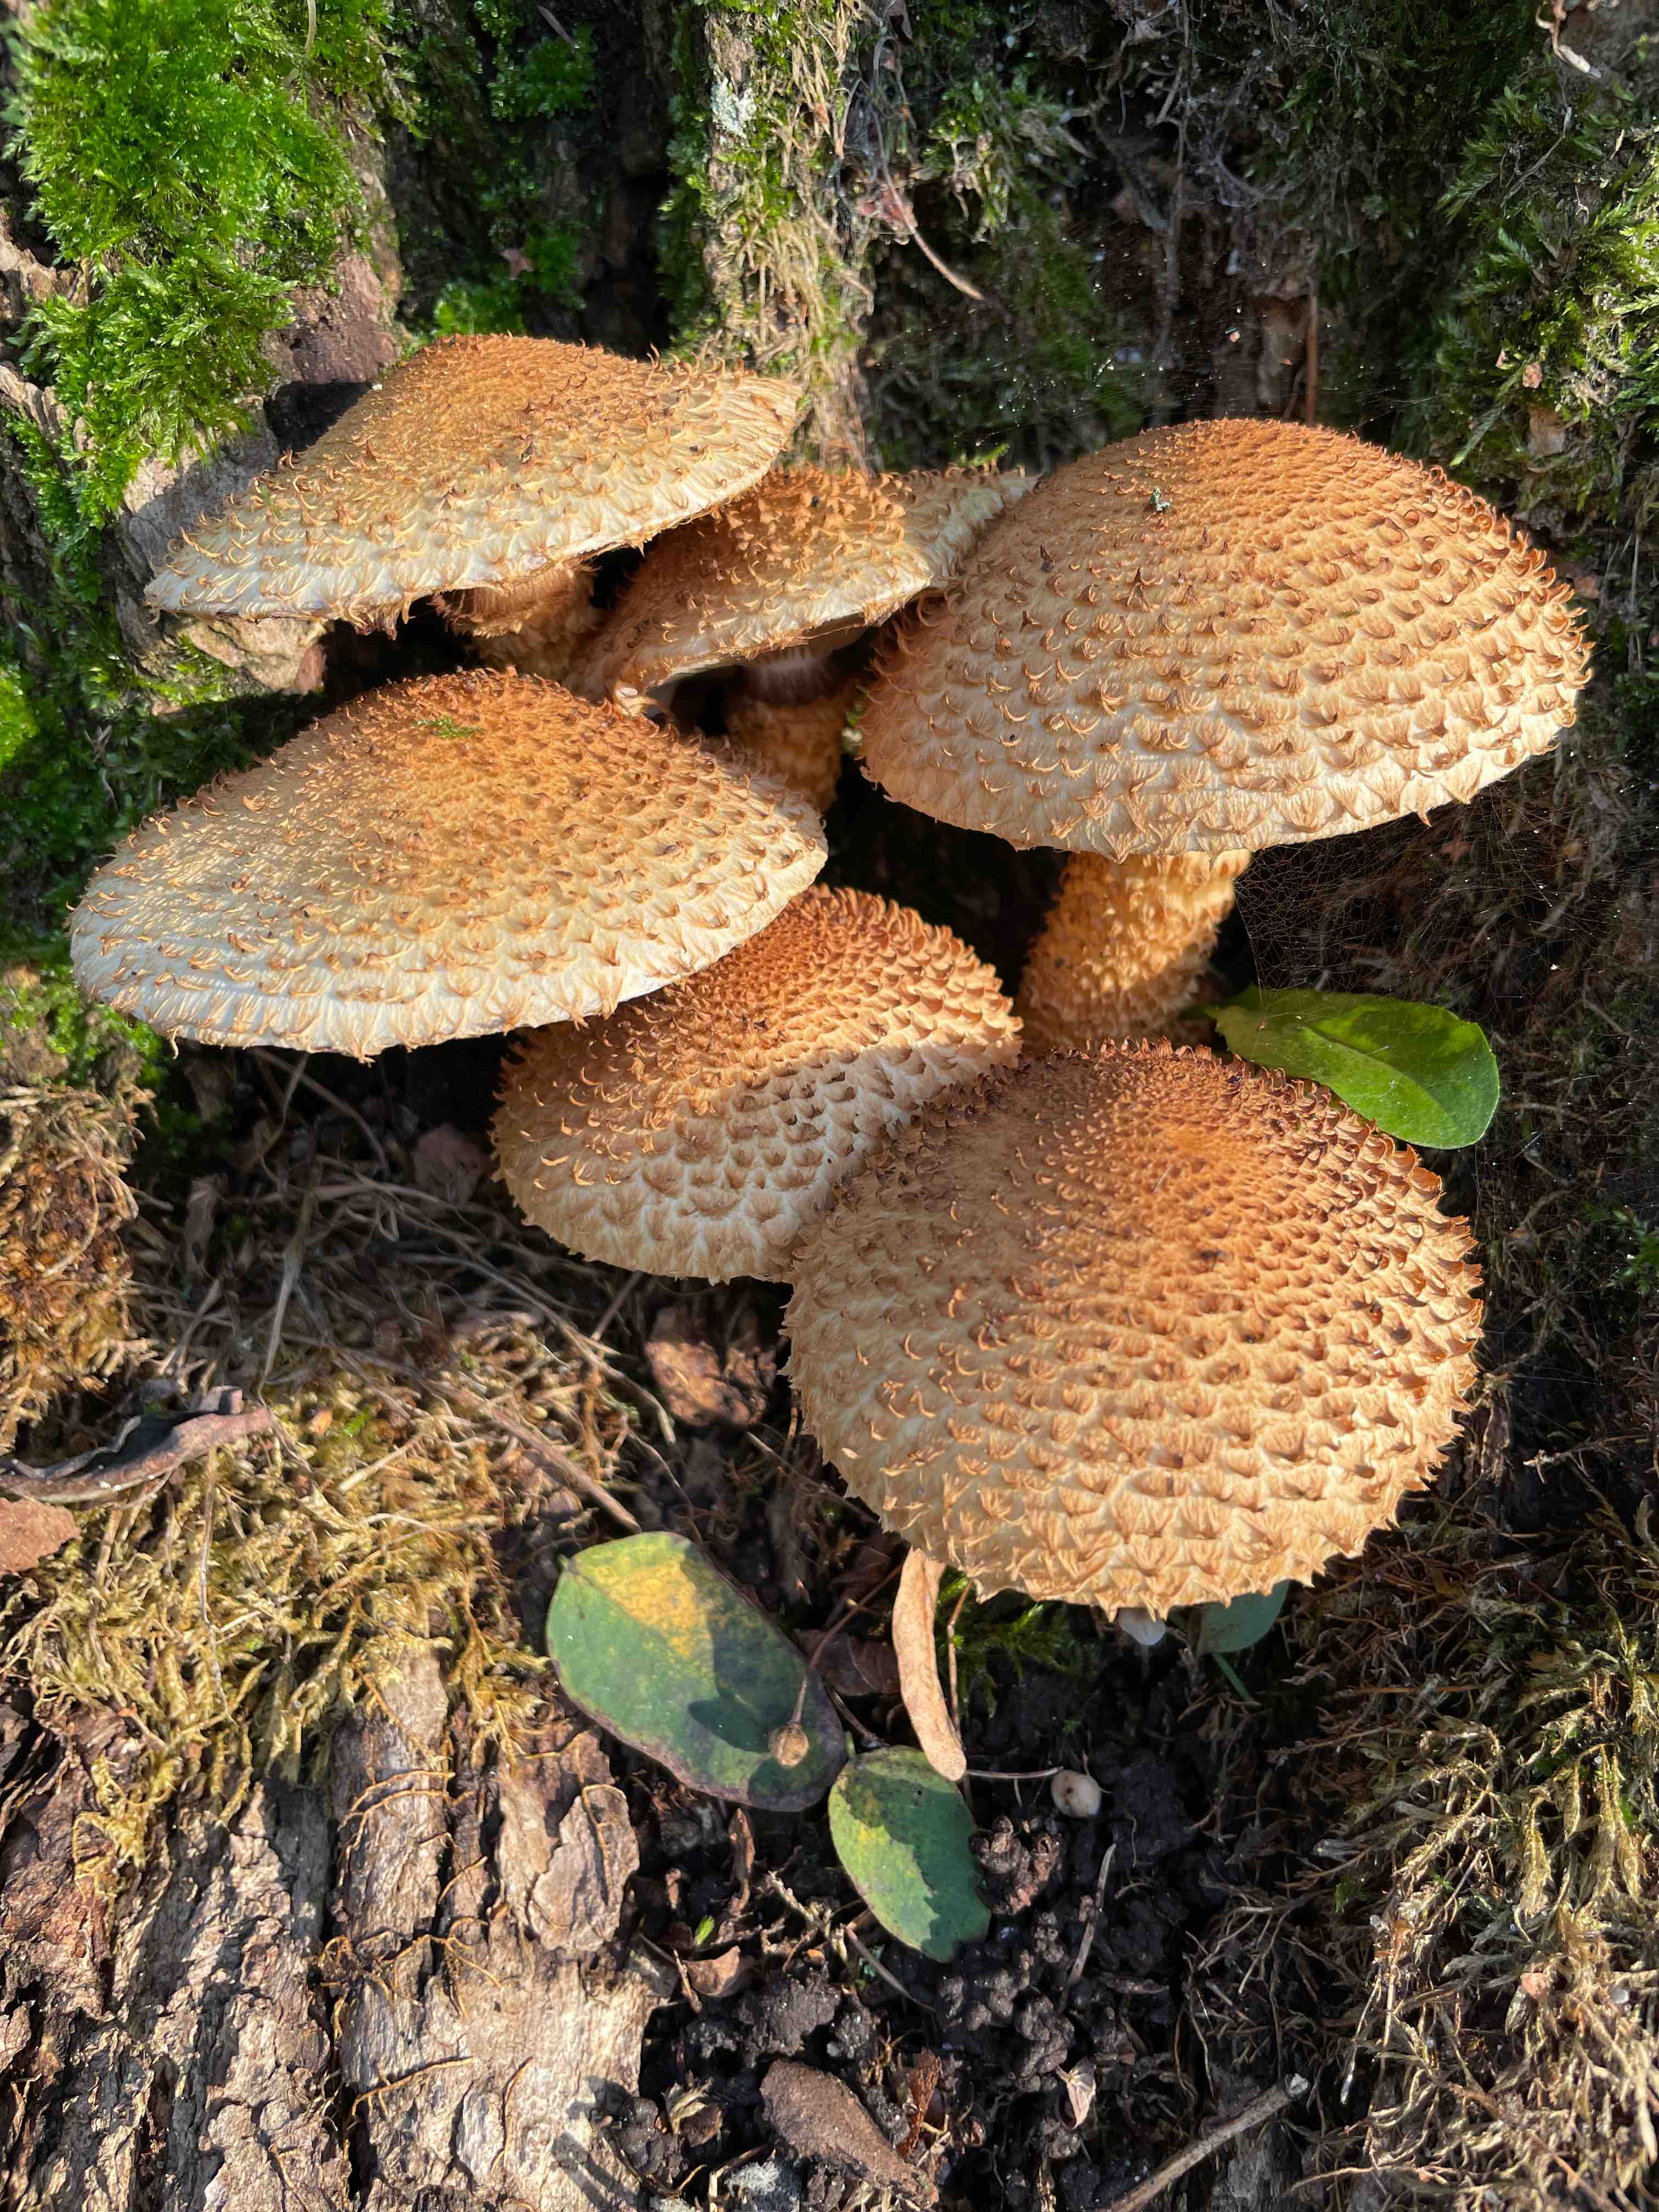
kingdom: Fungi
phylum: Basidiomycota
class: Agaricomycetes
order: Agaricales
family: Strophariaceae
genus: Pholiota
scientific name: Pholiota squarrosa
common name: krumskællet skælhat
